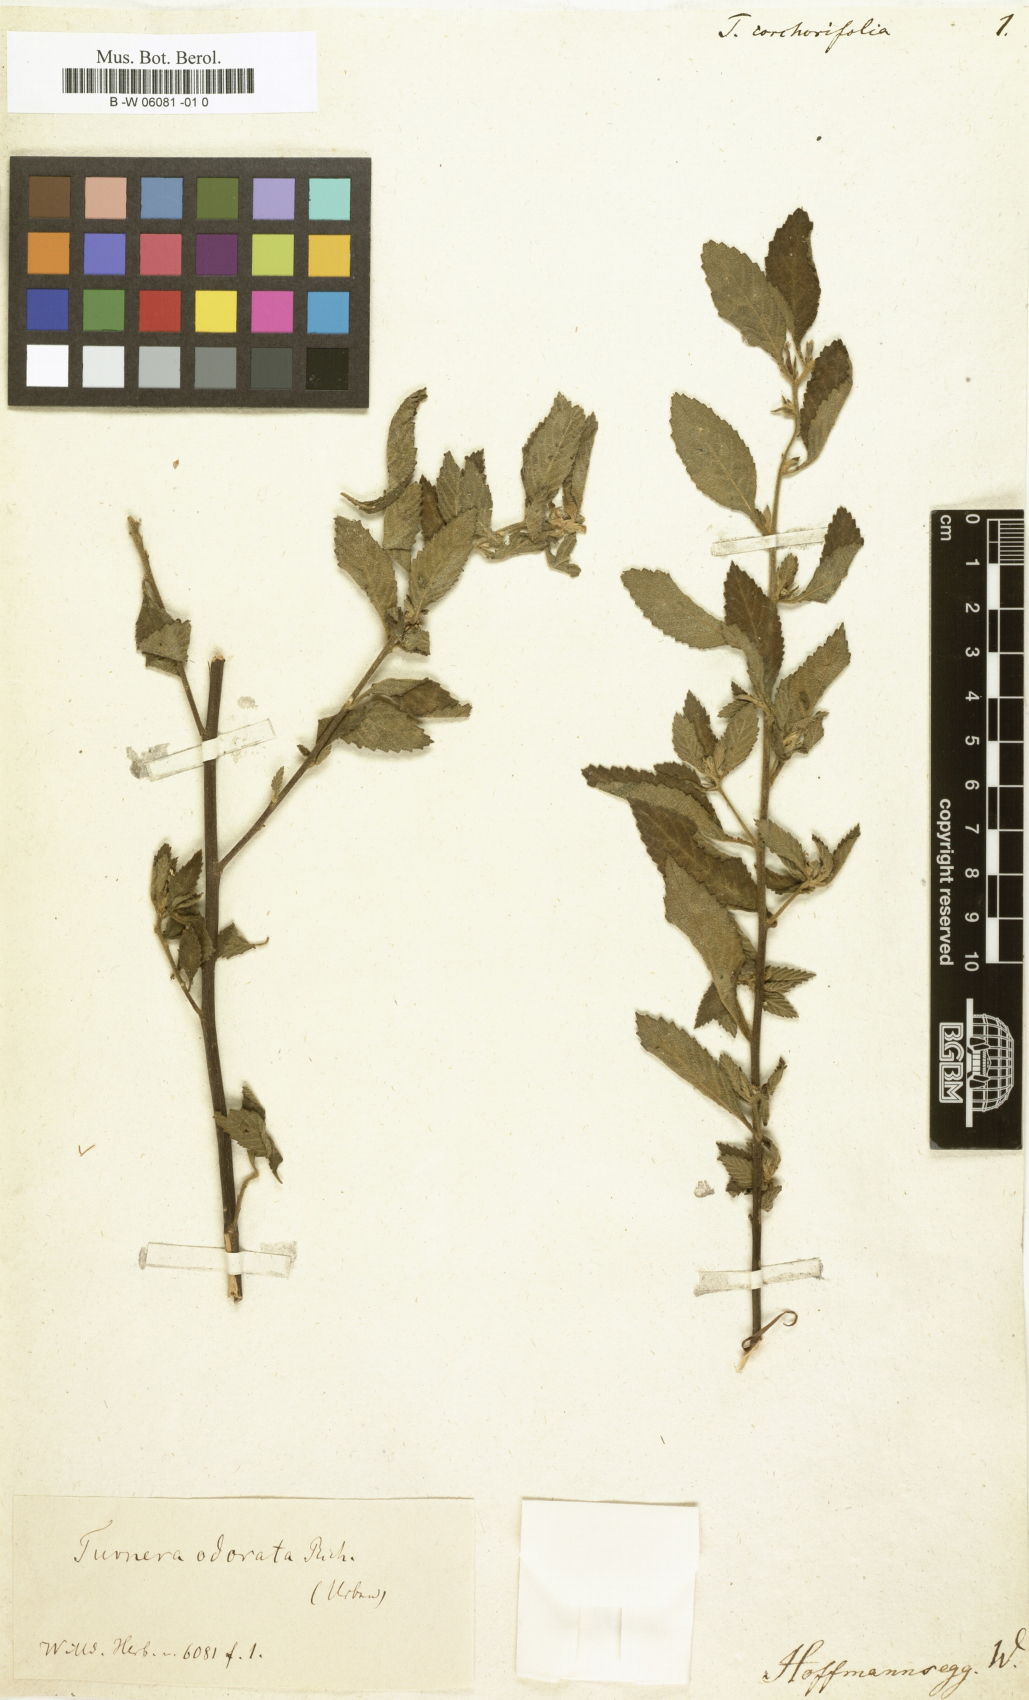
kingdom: Plantae
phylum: Tracheophyta
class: Magnoliopsida
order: Malpighiales
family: Turneraceae
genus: Turnera
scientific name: Turnera odorata
